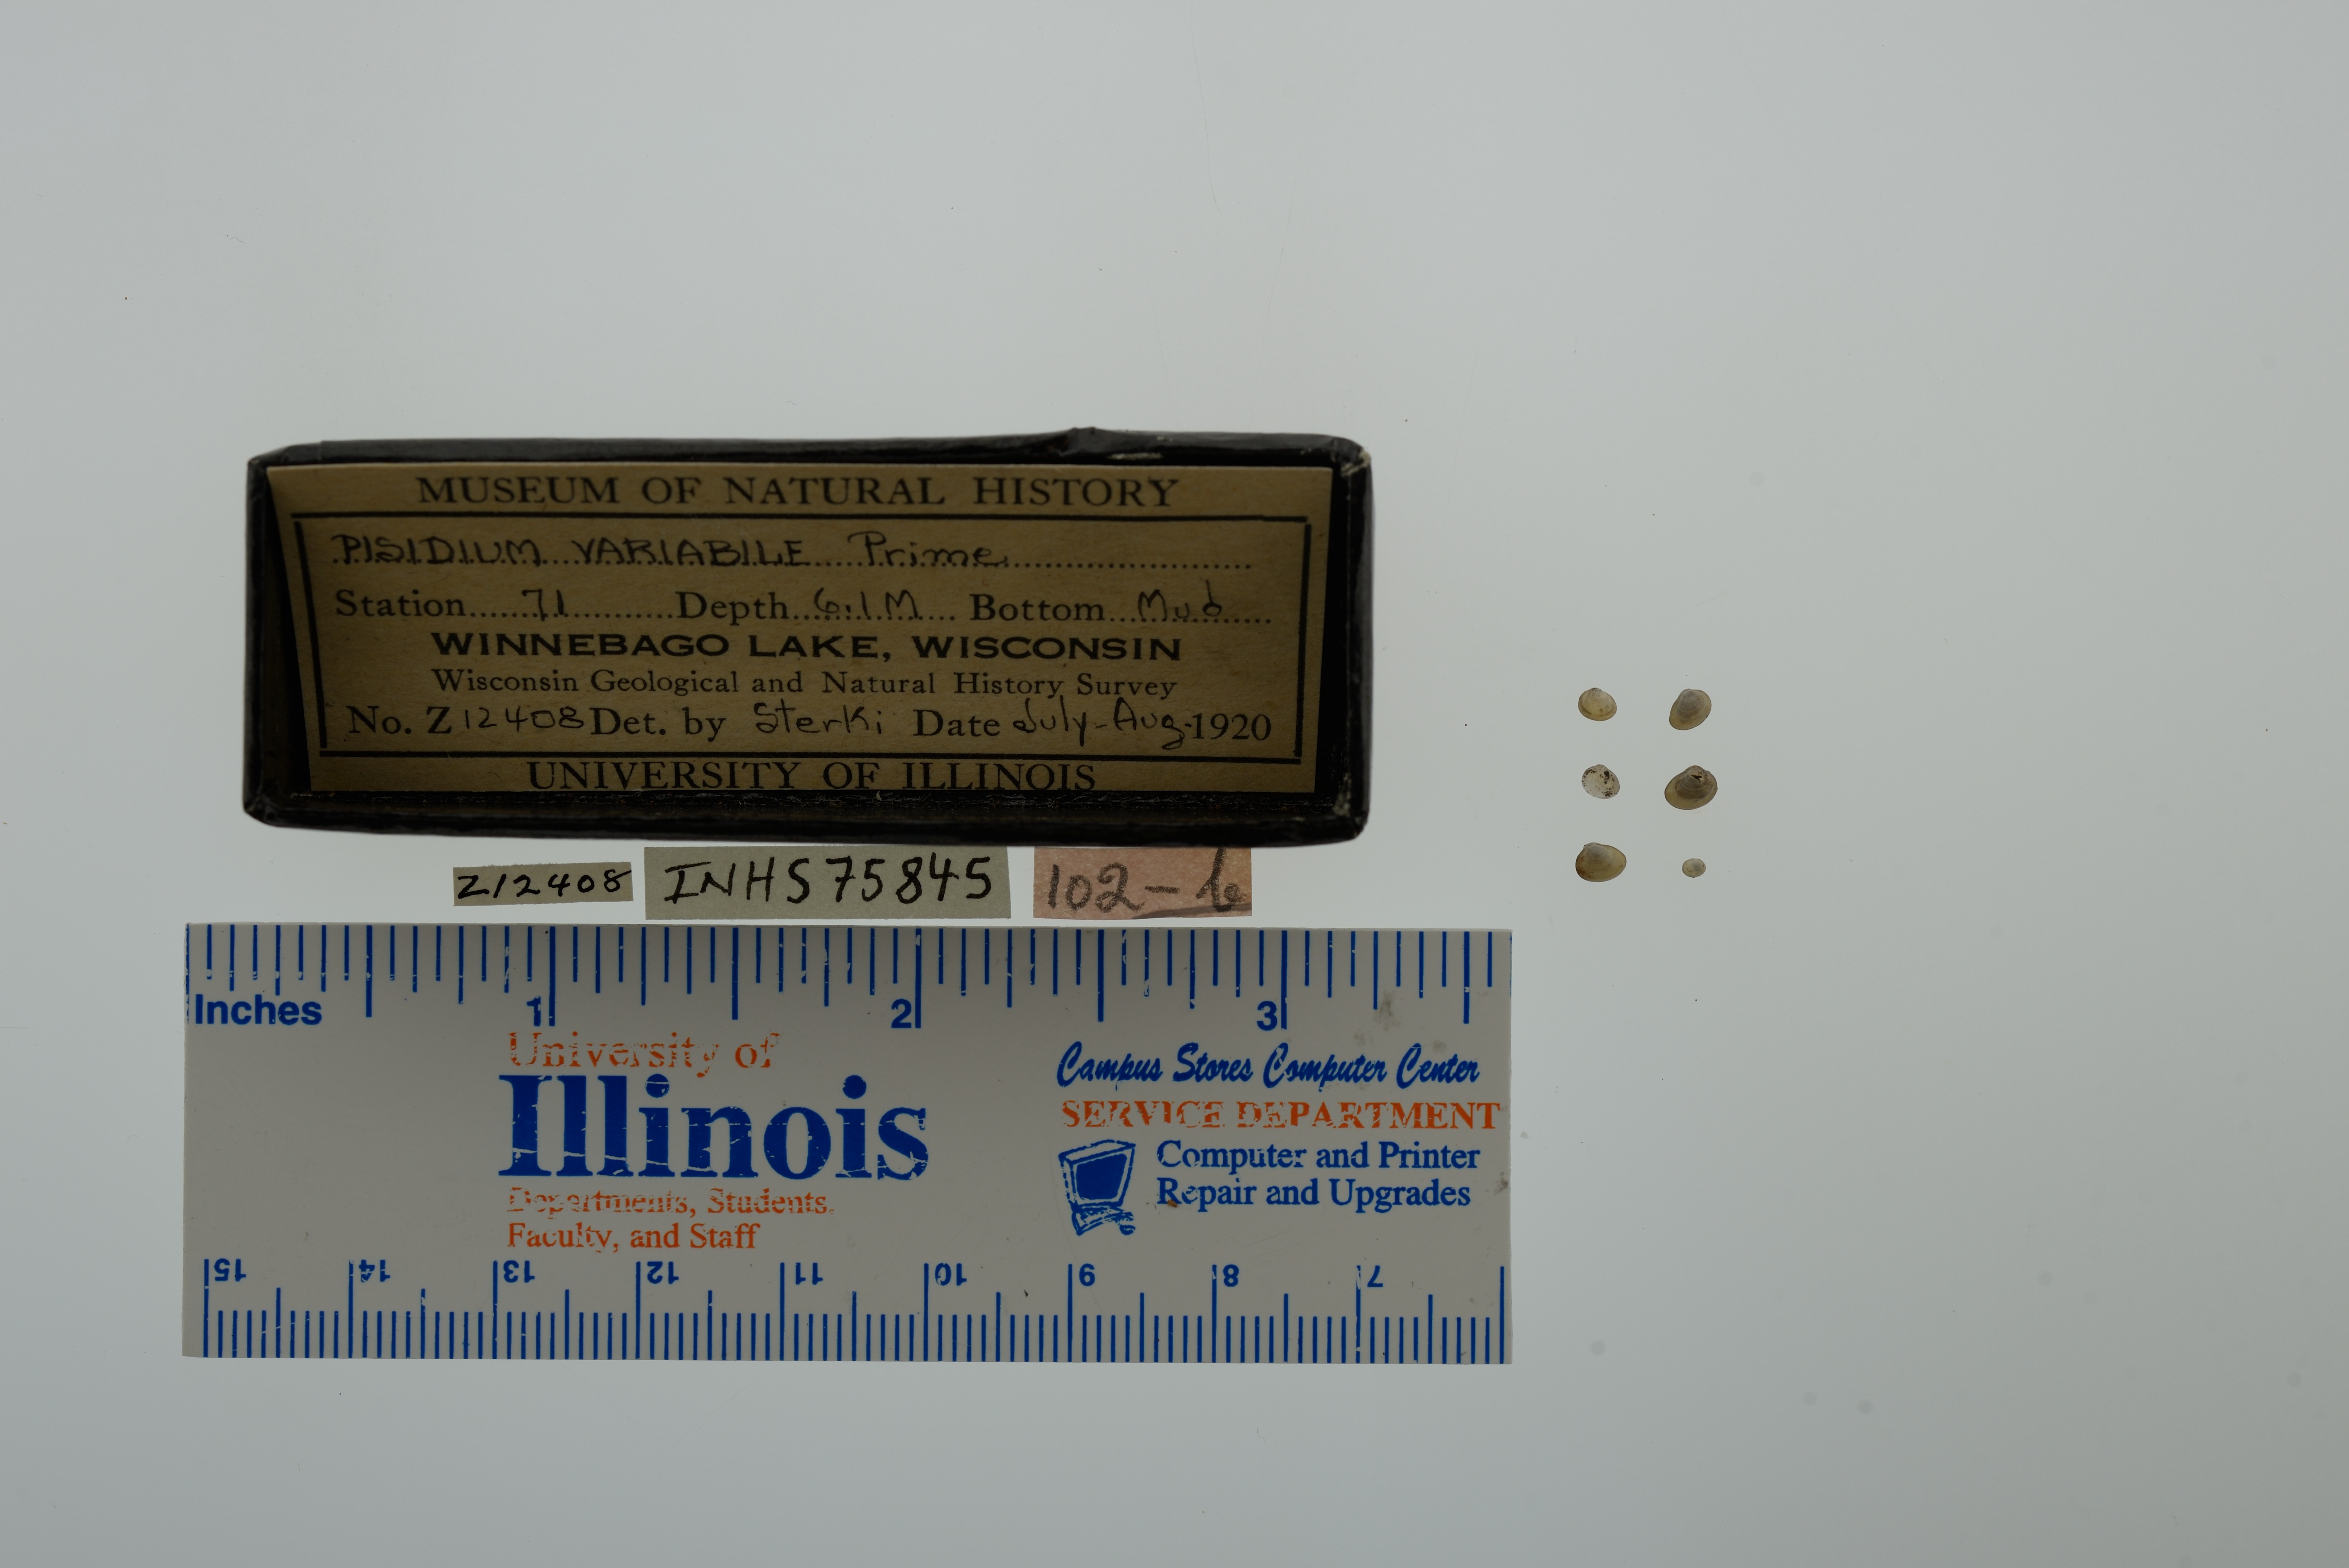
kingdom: Animalia
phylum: Mollusca
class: Bivalvia
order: Sphaeriida
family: Sphaeriidae
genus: Euglesa
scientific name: Euglesa variabilis
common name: Triangular peaclam
